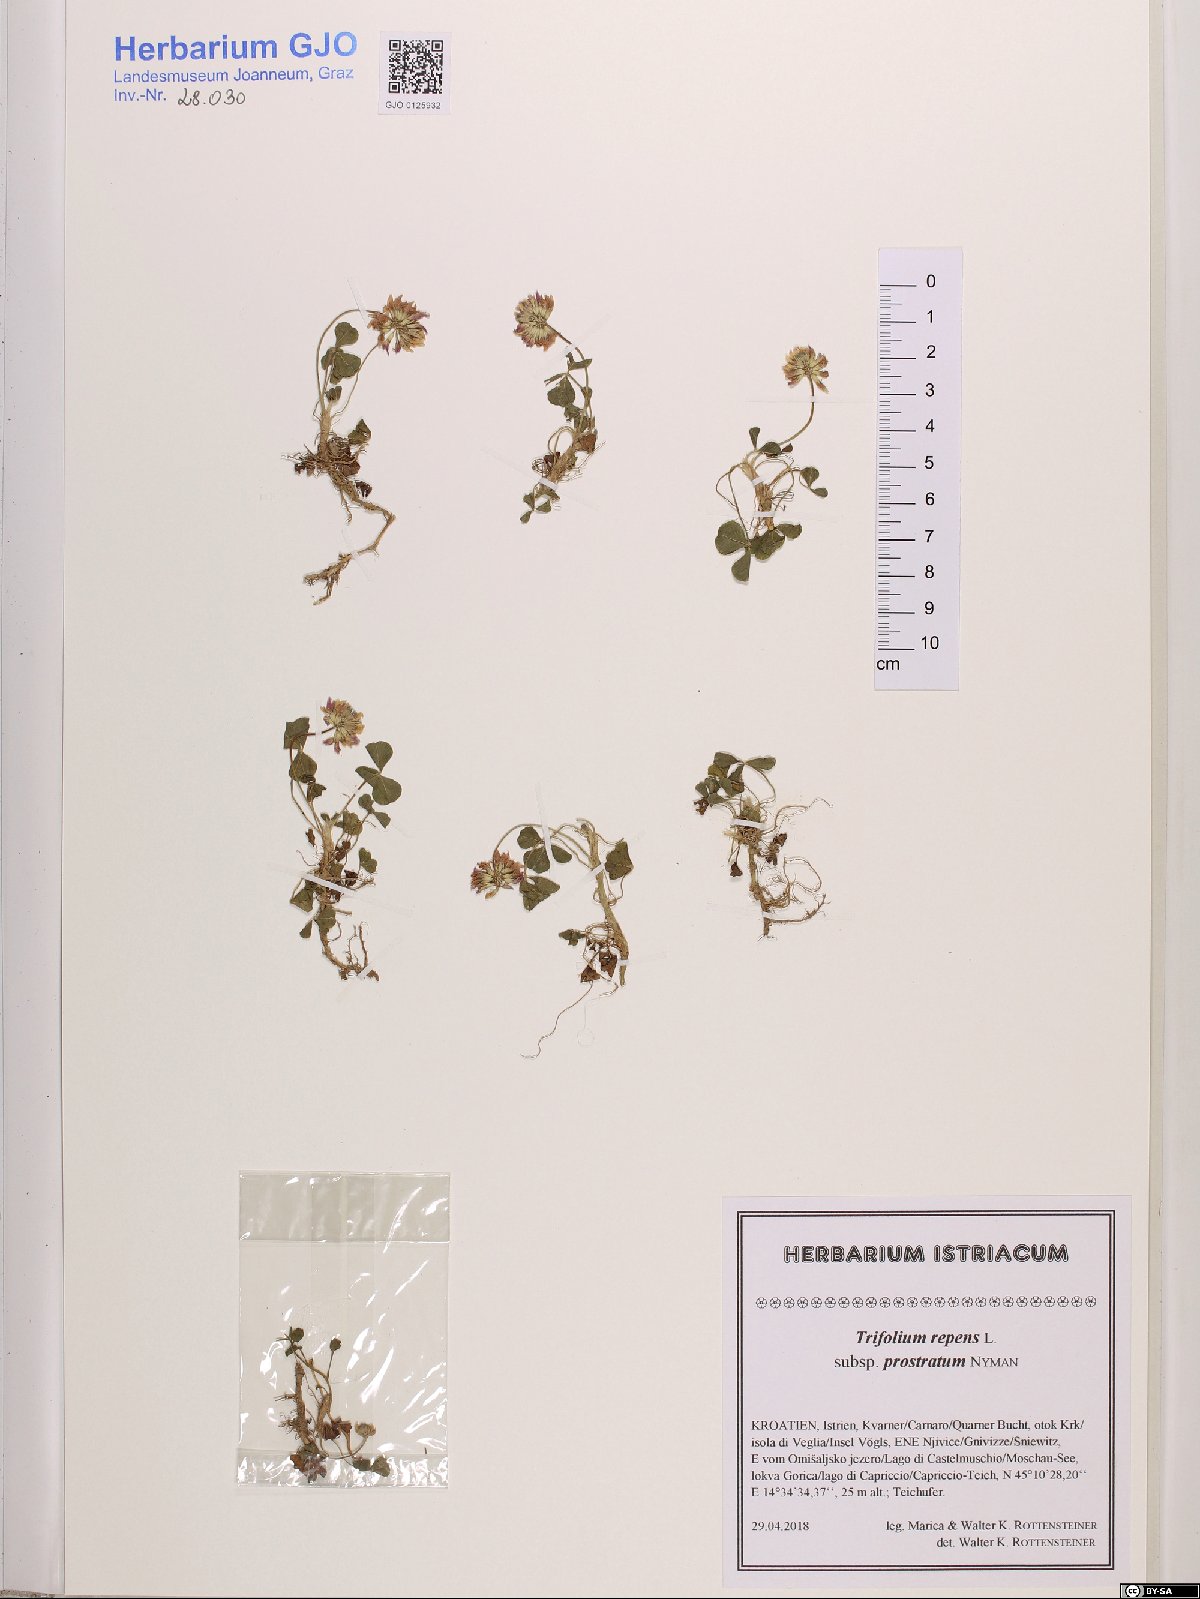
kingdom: Plantae
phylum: Tracheophyta
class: Magnoliopsida
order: Fabales
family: Fabaceae
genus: Trifolium
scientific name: Trifolium repens
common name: White clover
